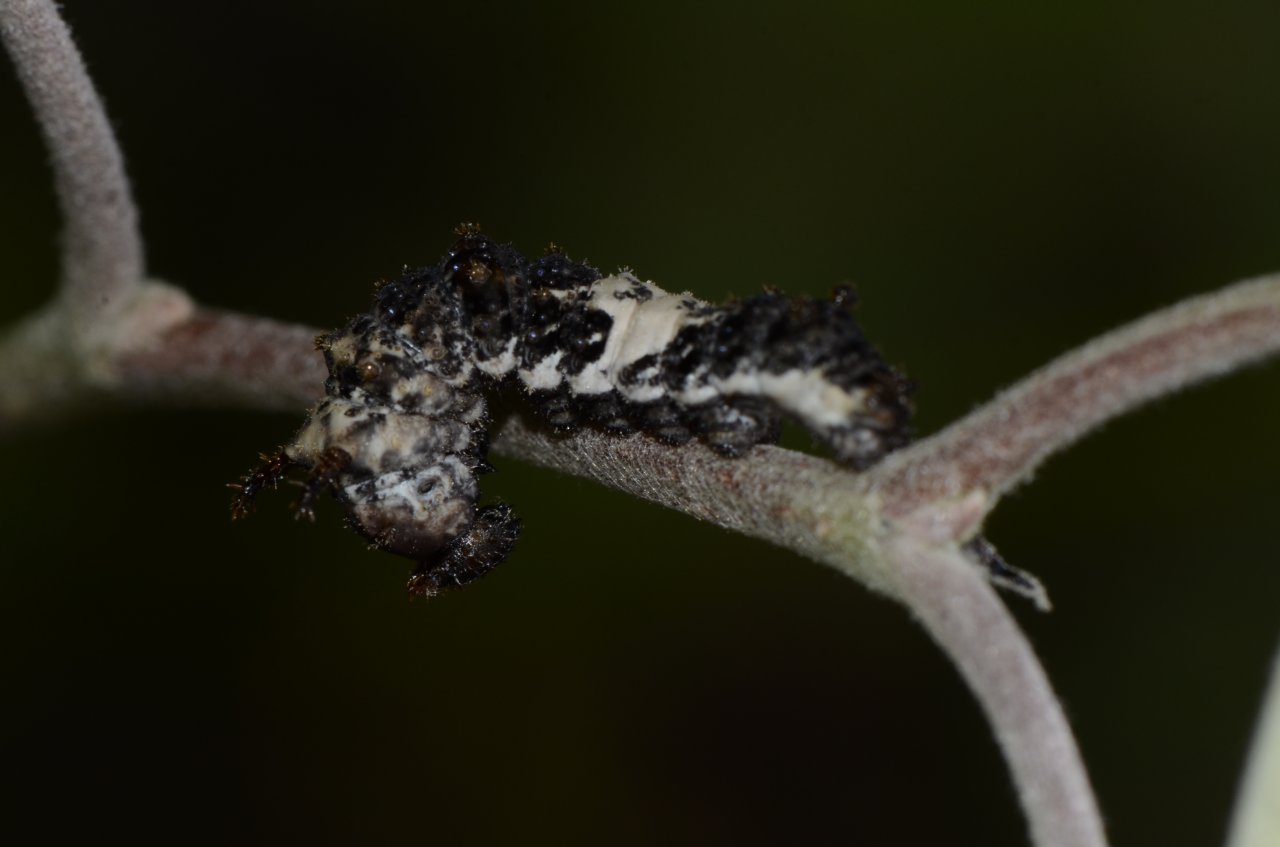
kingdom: Animalia
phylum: Arthropoda
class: Insecta
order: Lepidoptera
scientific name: Lepidoptera
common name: Butterflies
